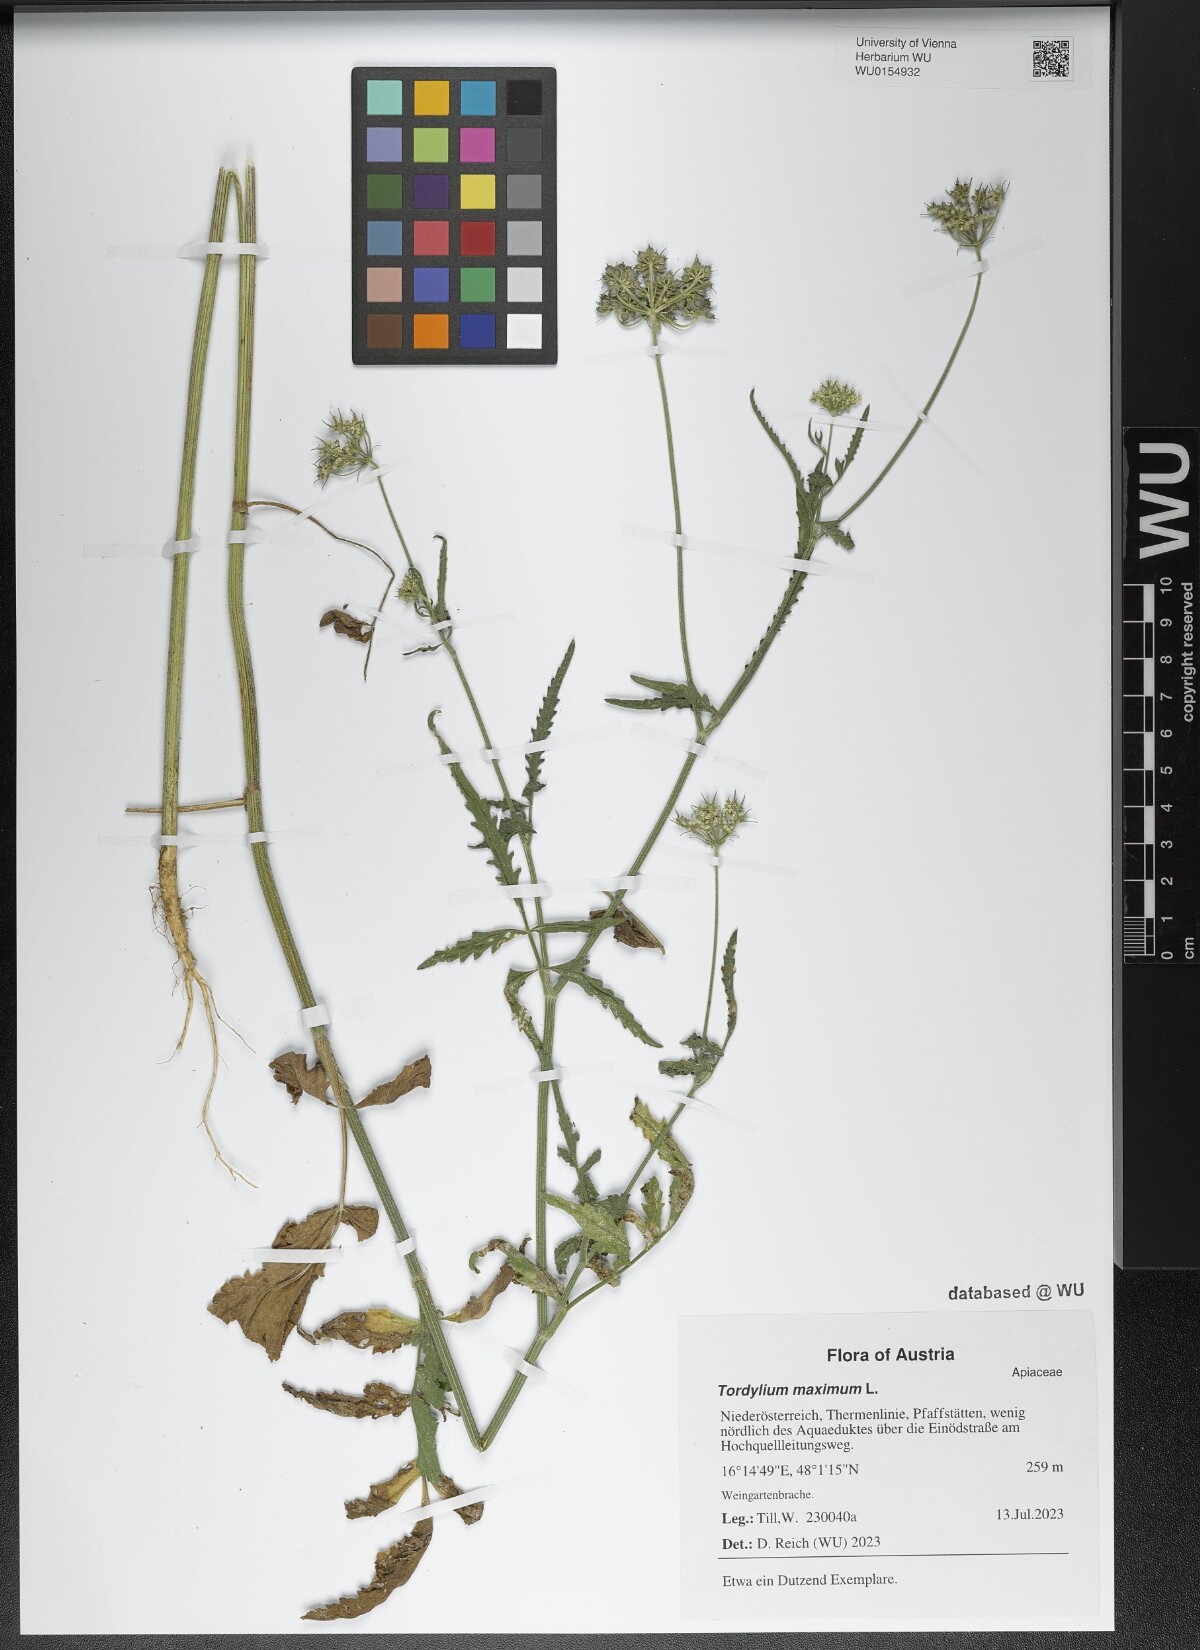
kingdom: Plantae
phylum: Tracheophyta
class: Magnoliopsida
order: Apiales
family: Apiaceae
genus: Tordylium
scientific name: Tordylium maximum
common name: Hartwort
